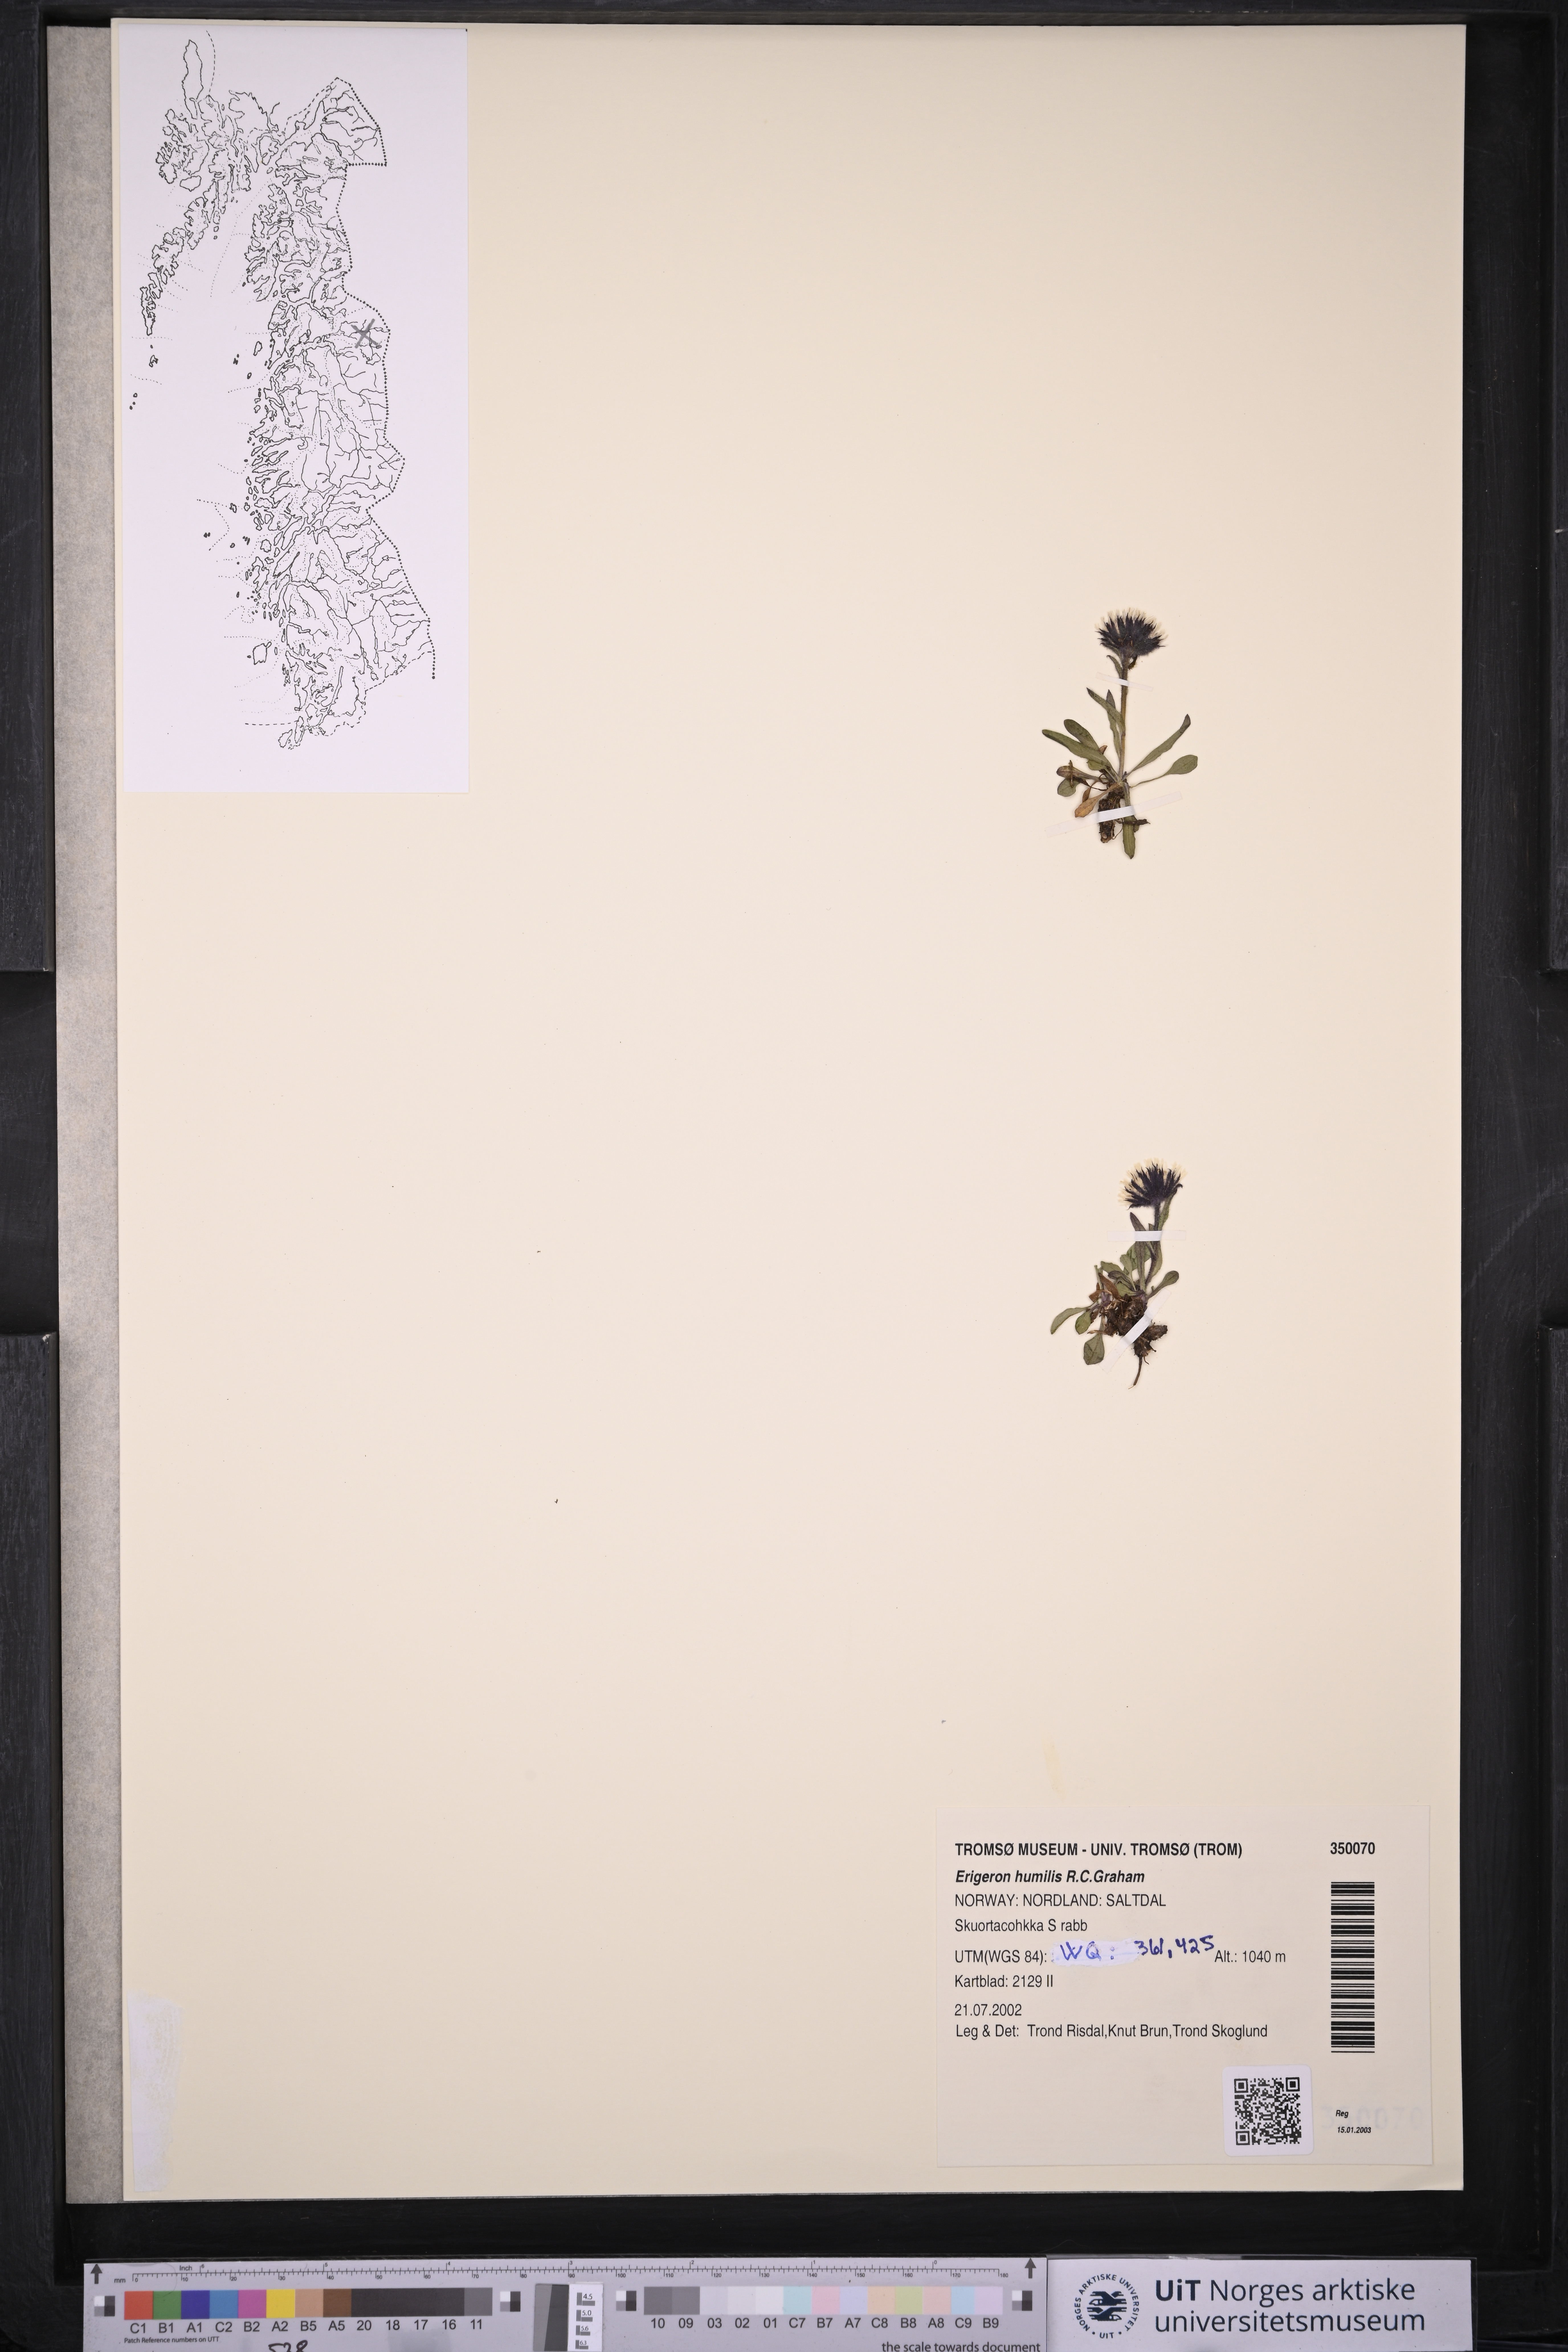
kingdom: Plantae
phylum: Tracheophyta
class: Magnoliopsida
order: Asterales
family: Asteraceae
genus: Erigeron
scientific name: Erigeron humilis
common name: Arctic-alpine fleabane
